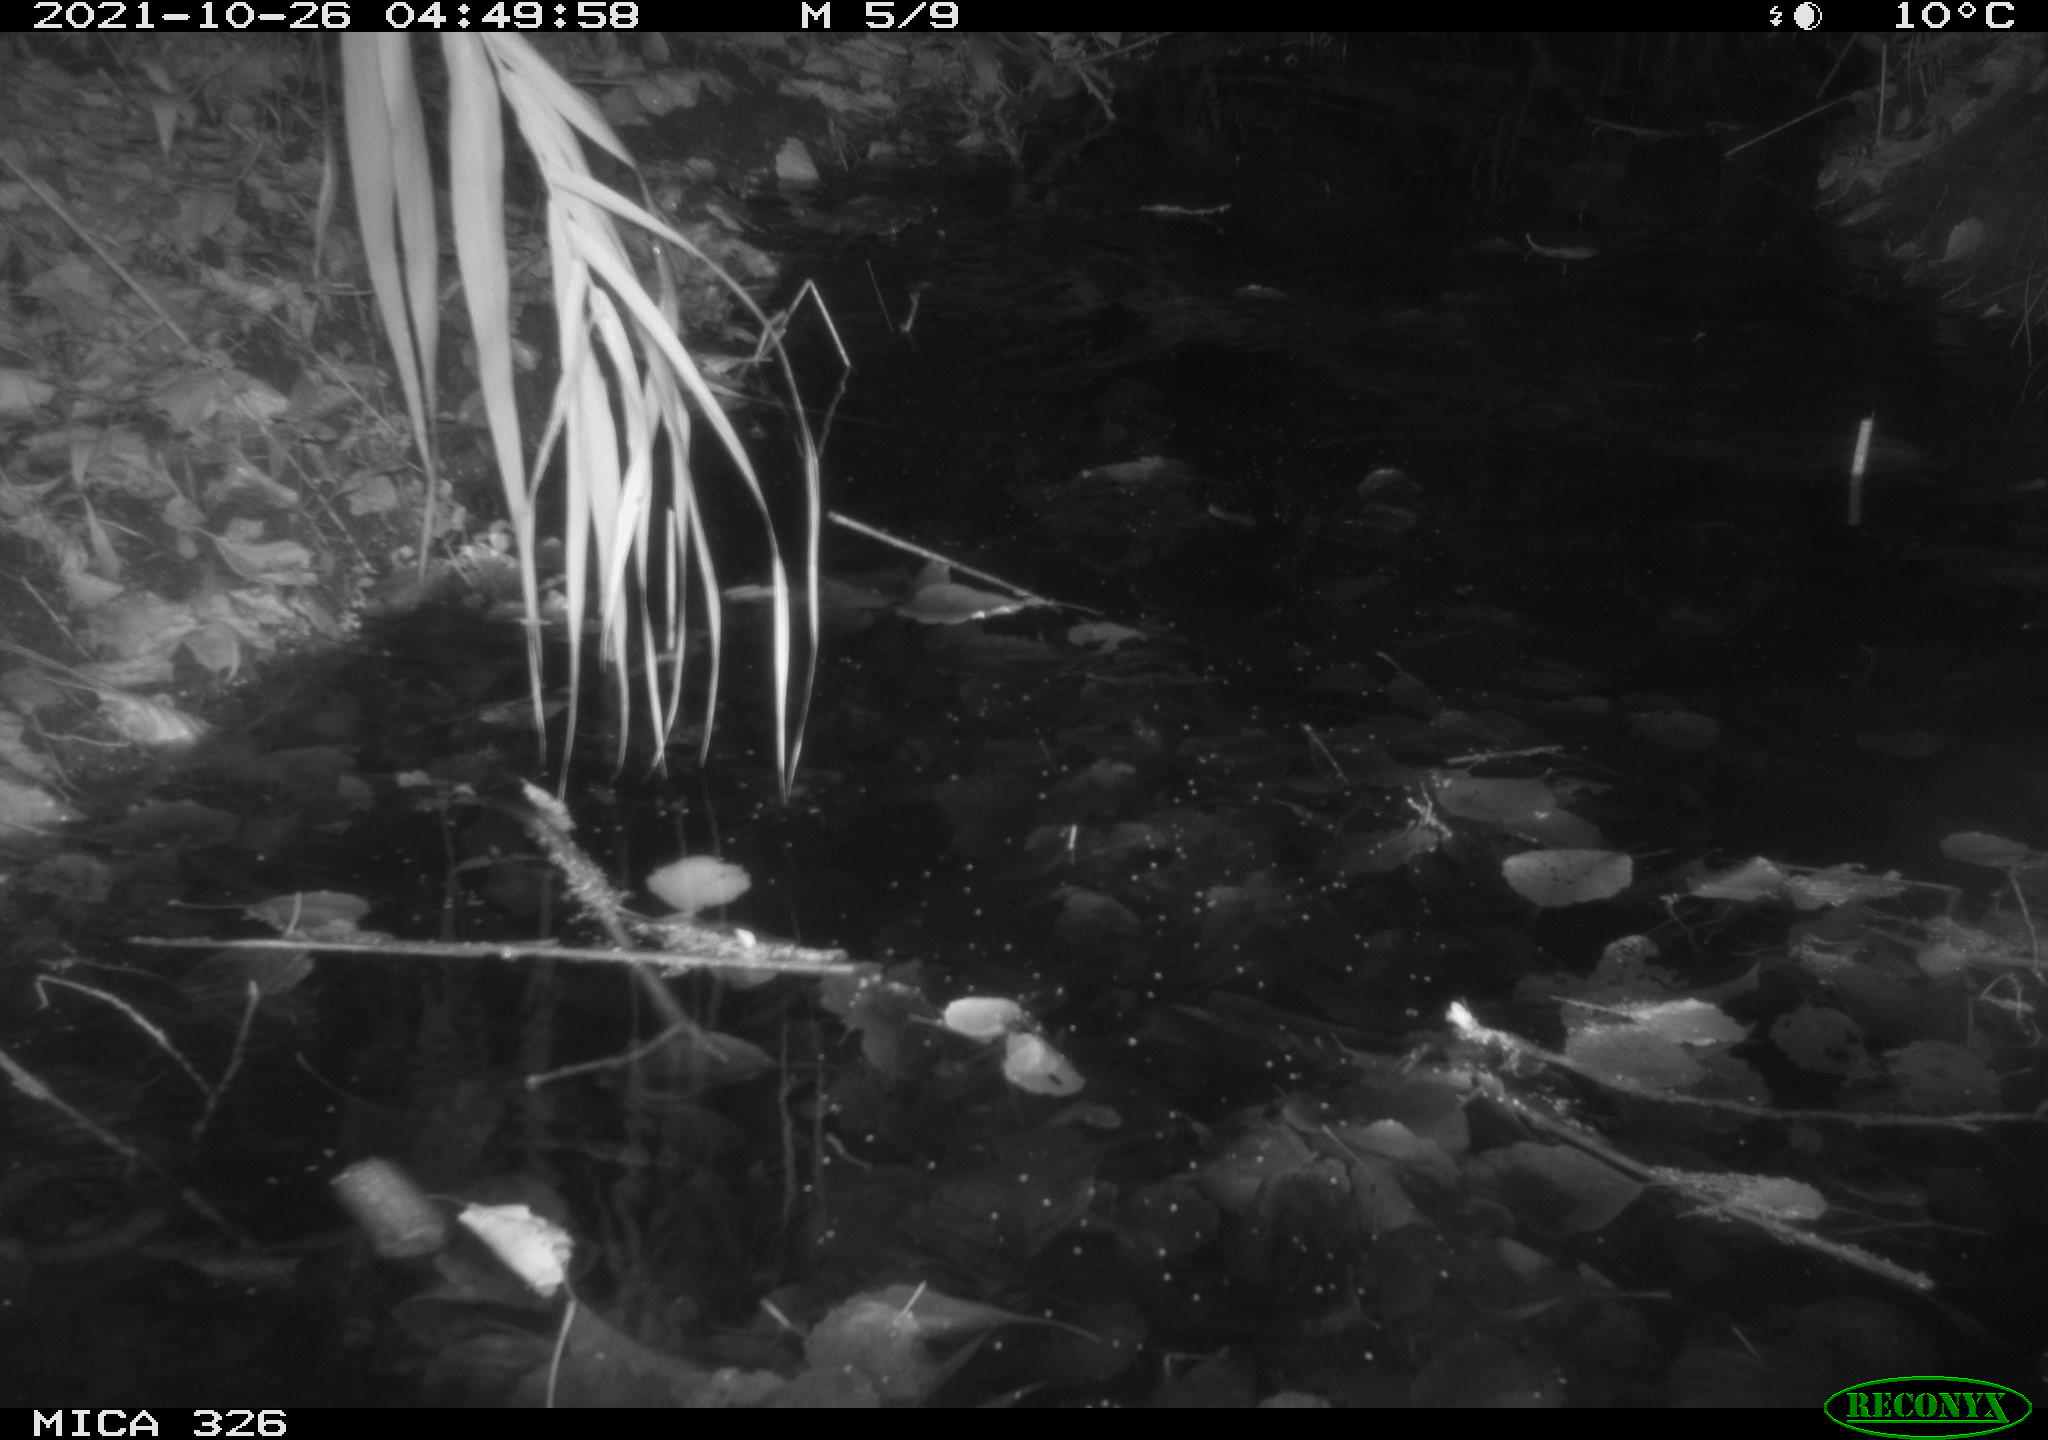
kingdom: Animalia
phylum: Chordata
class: Mammalia
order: Rodentia
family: Muridae
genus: Rattus
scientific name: Rattus norvegicus
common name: Brown rat
